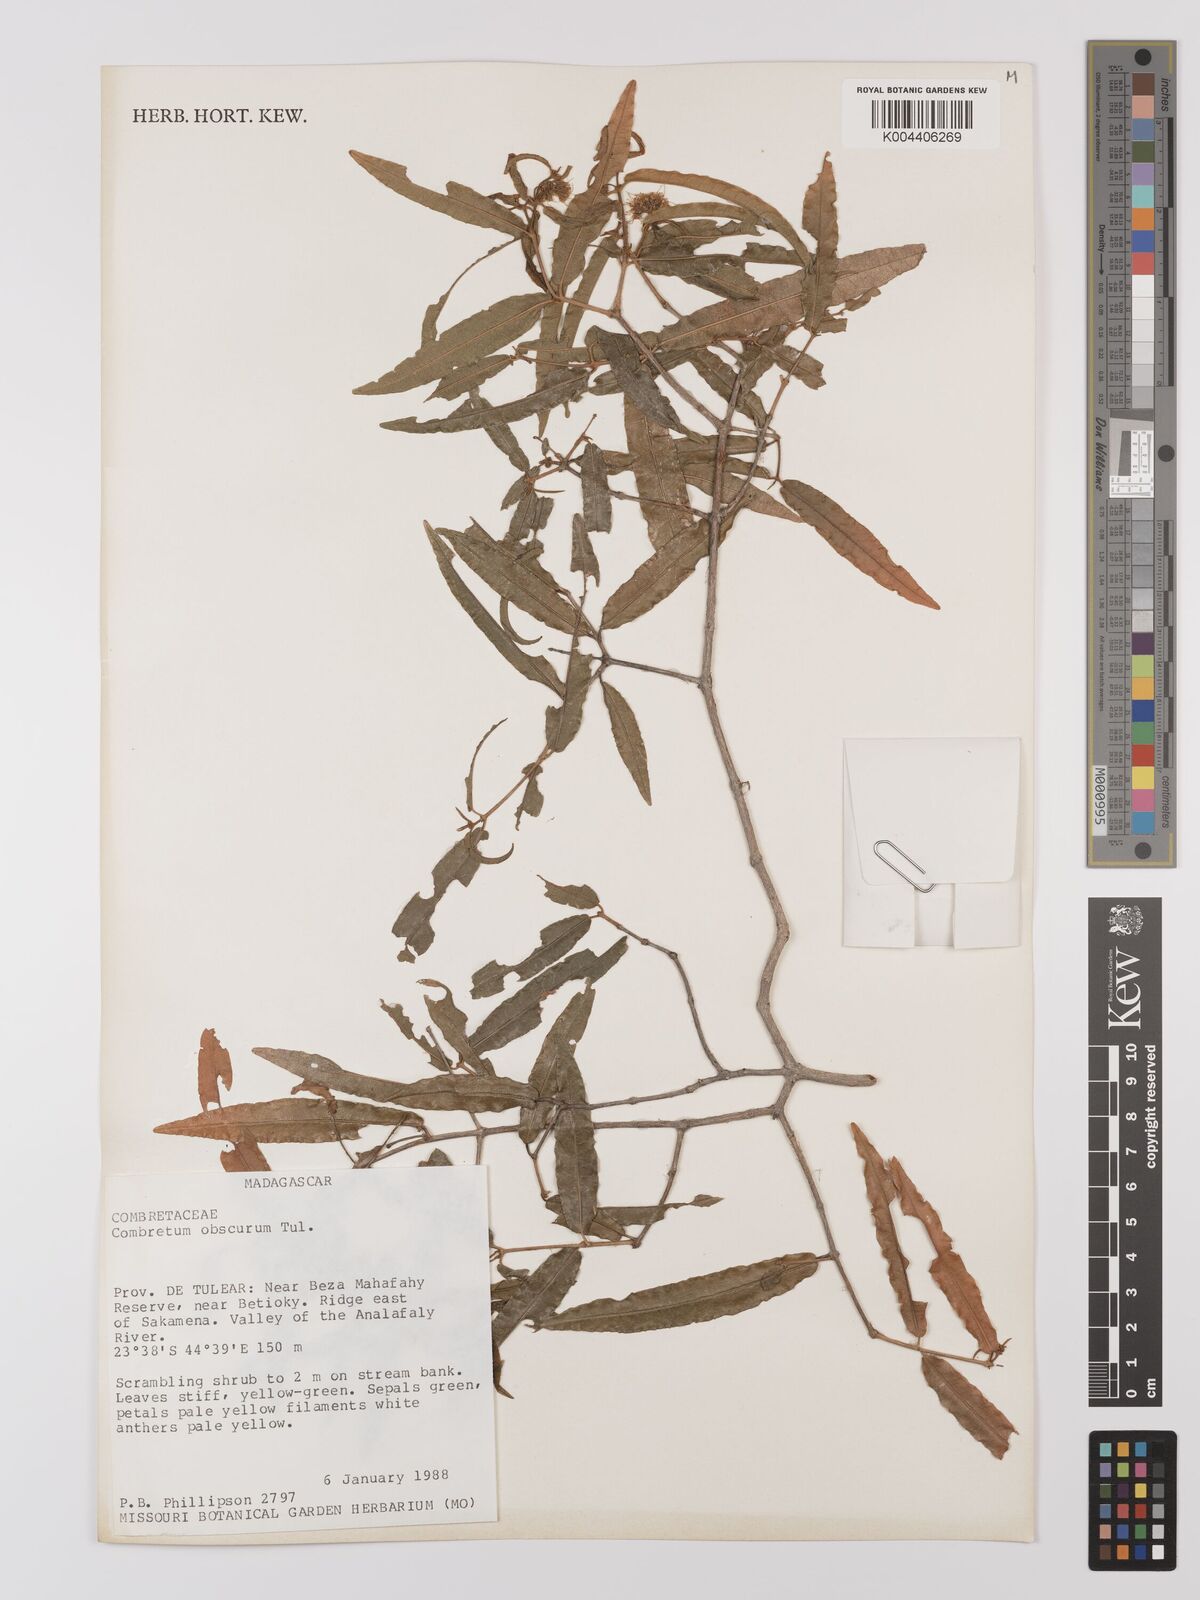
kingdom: Plantae
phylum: Tracheophyta
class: Magnoliopsida
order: Myrtales
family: Combretaceae
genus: Combretum
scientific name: Combretum obscurum
